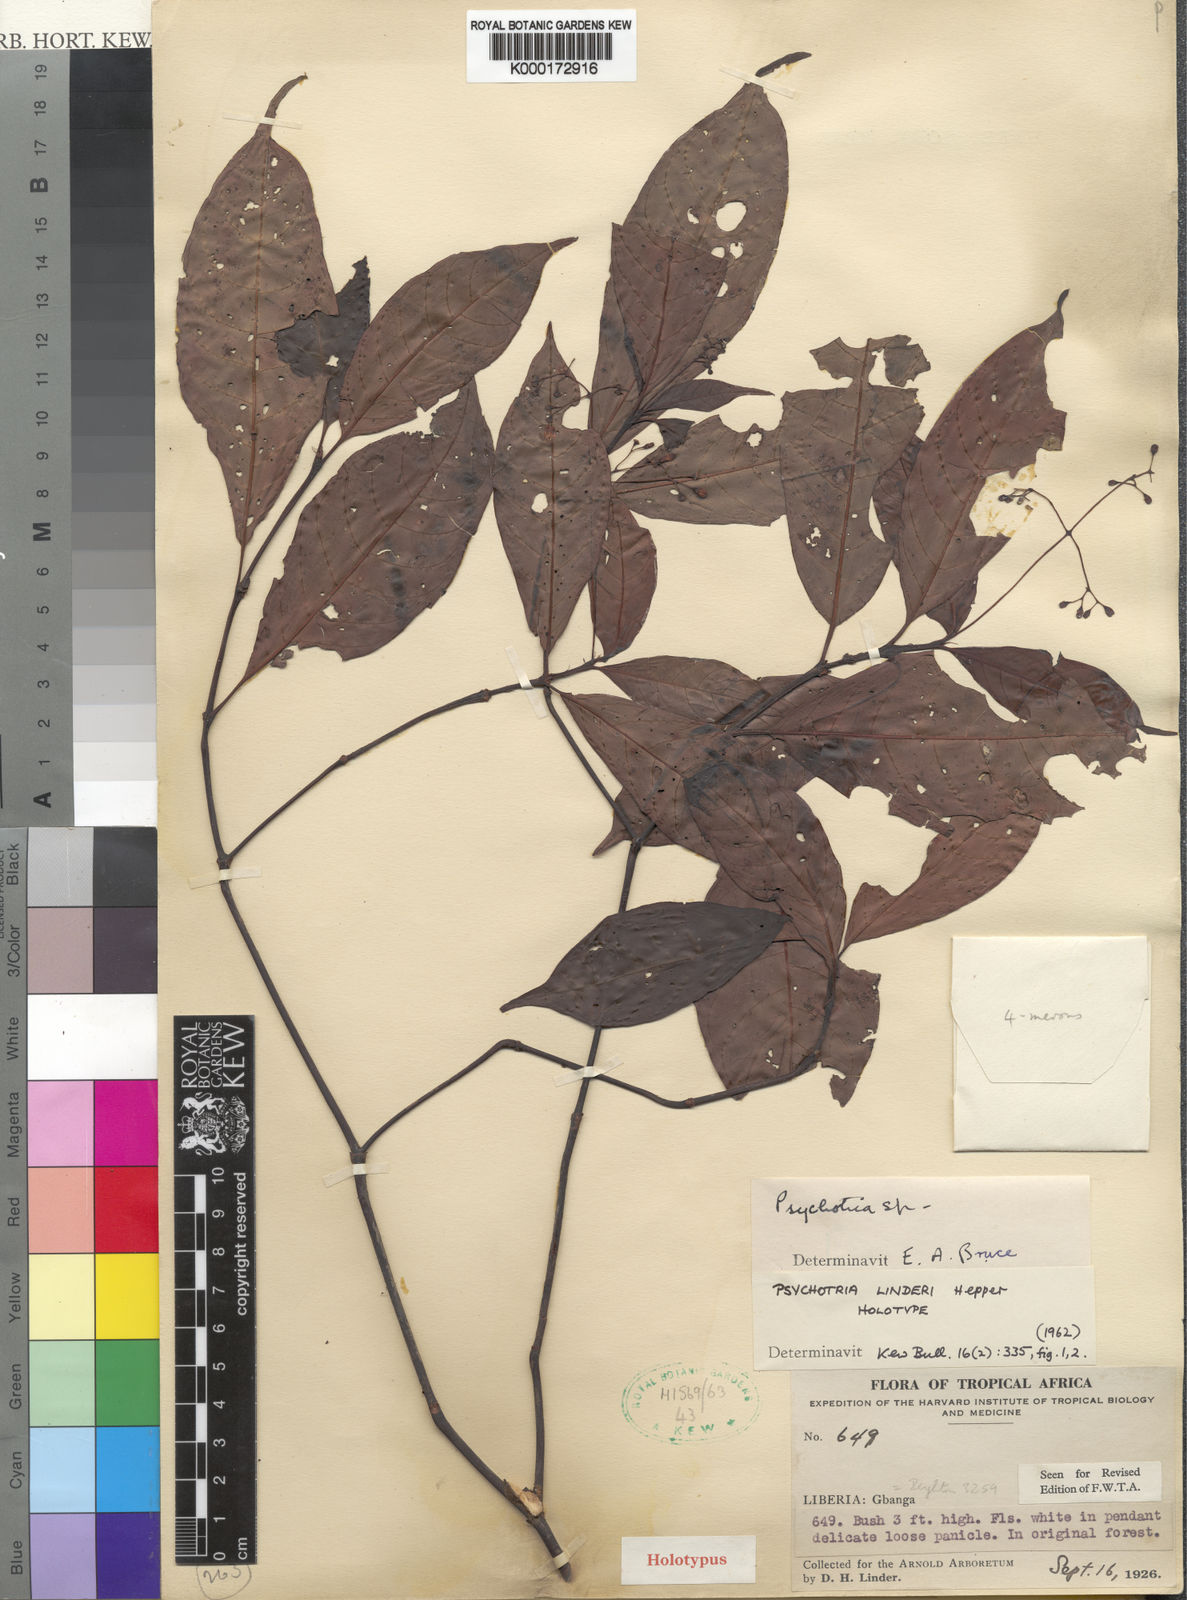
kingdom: Plantae
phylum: Tracheophyta
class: Magnoliopsida
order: Gentianales
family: Rubiaceae
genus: Psychotria
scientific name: Psychotria brachyanthoides
